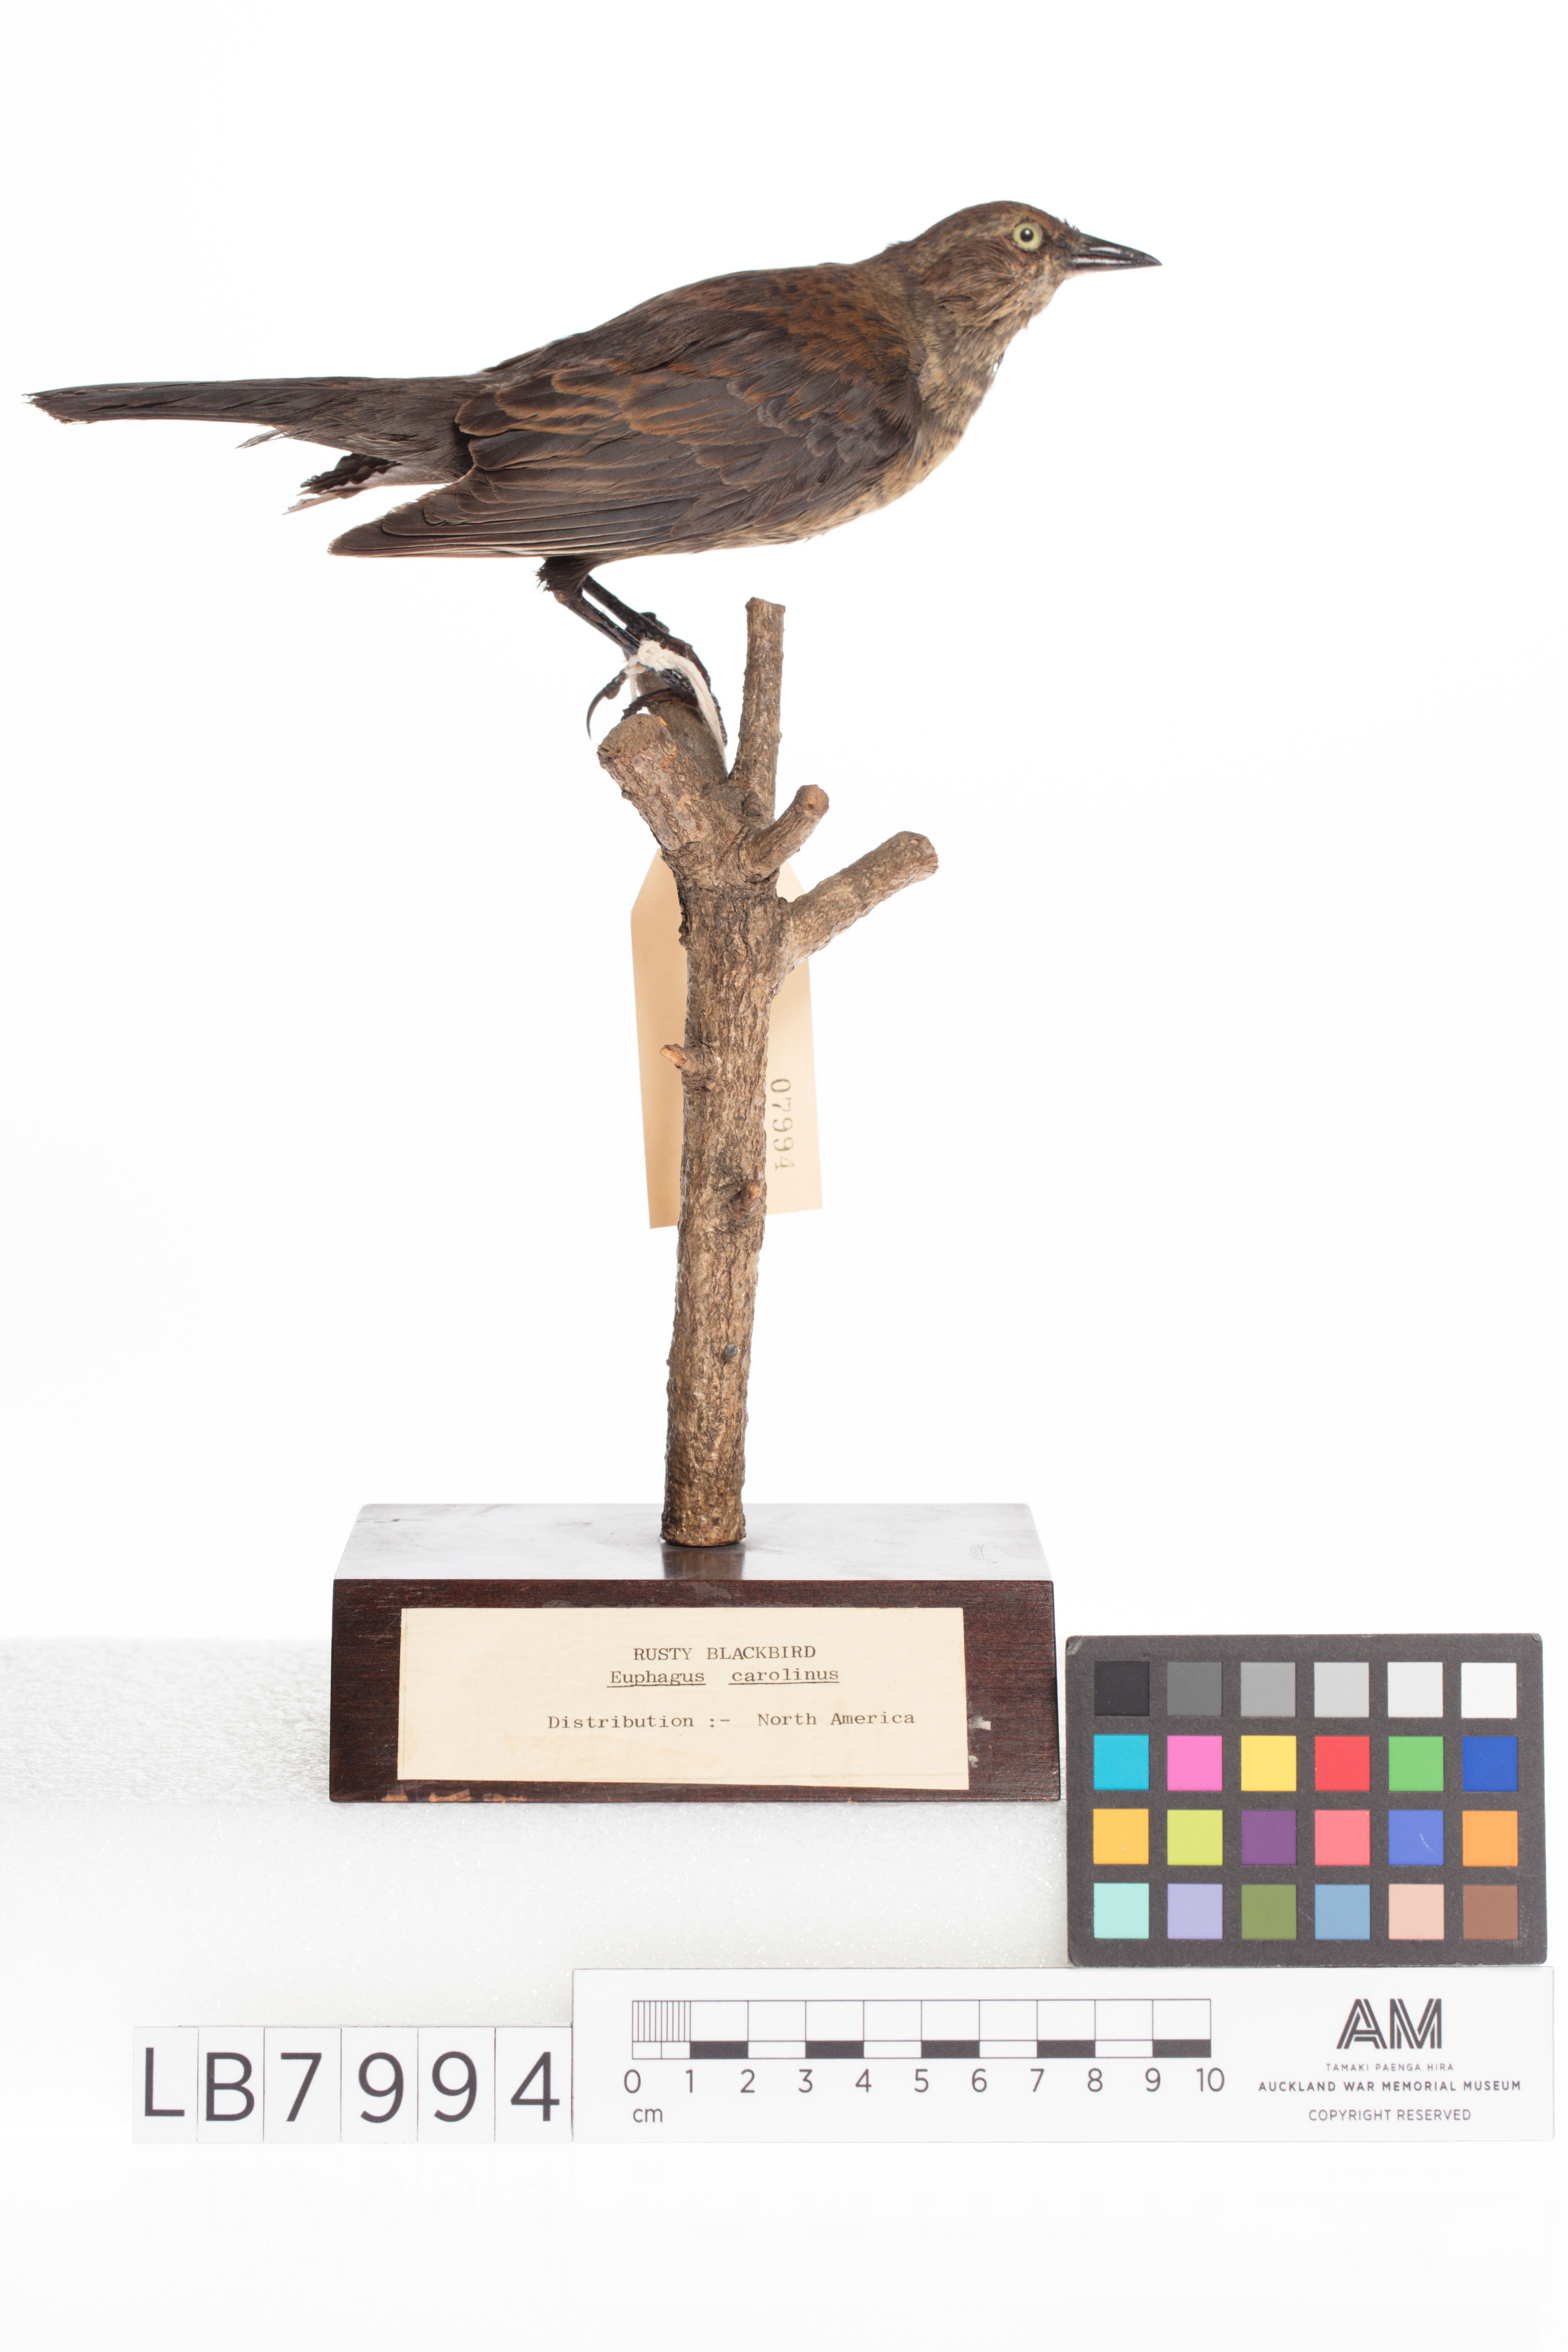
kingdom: Animalia
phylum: Chordata
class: Aves
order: Passeriformes
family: Icteridae
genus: Euphagus
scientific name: Euphagus carolinus
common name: Rusty blackbird
